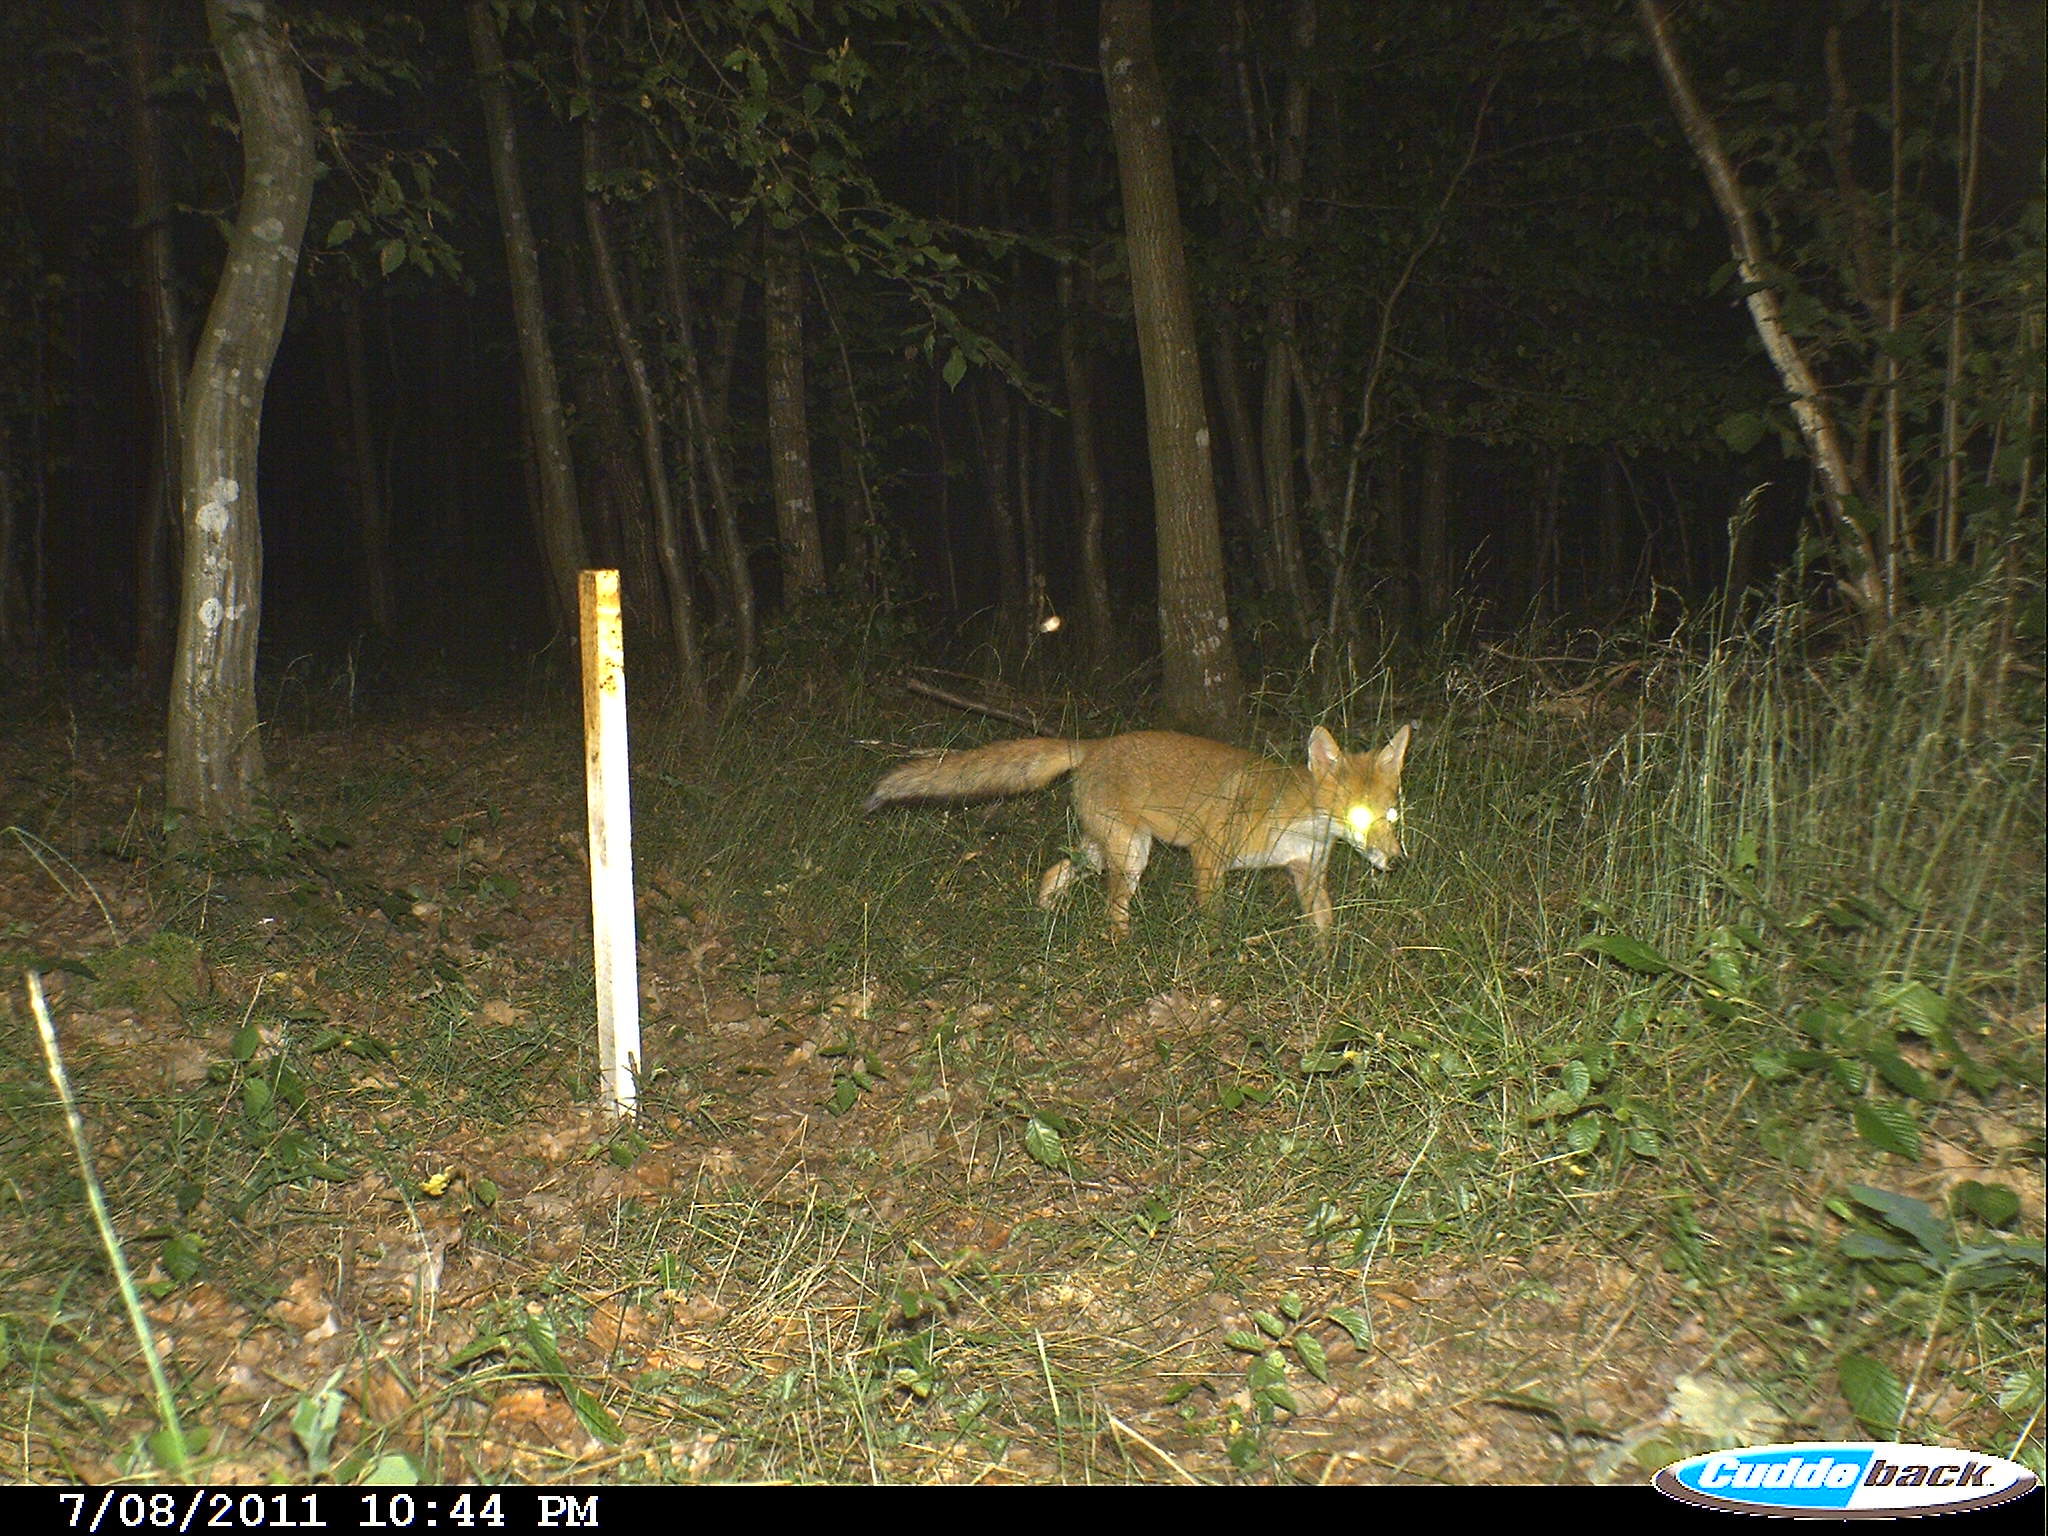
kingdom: Animalia
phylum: Chordata
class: Mammalia
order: Carnivora
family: Canidae
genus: Vulpes
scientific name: Vulpes vulpes
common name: Red fox
